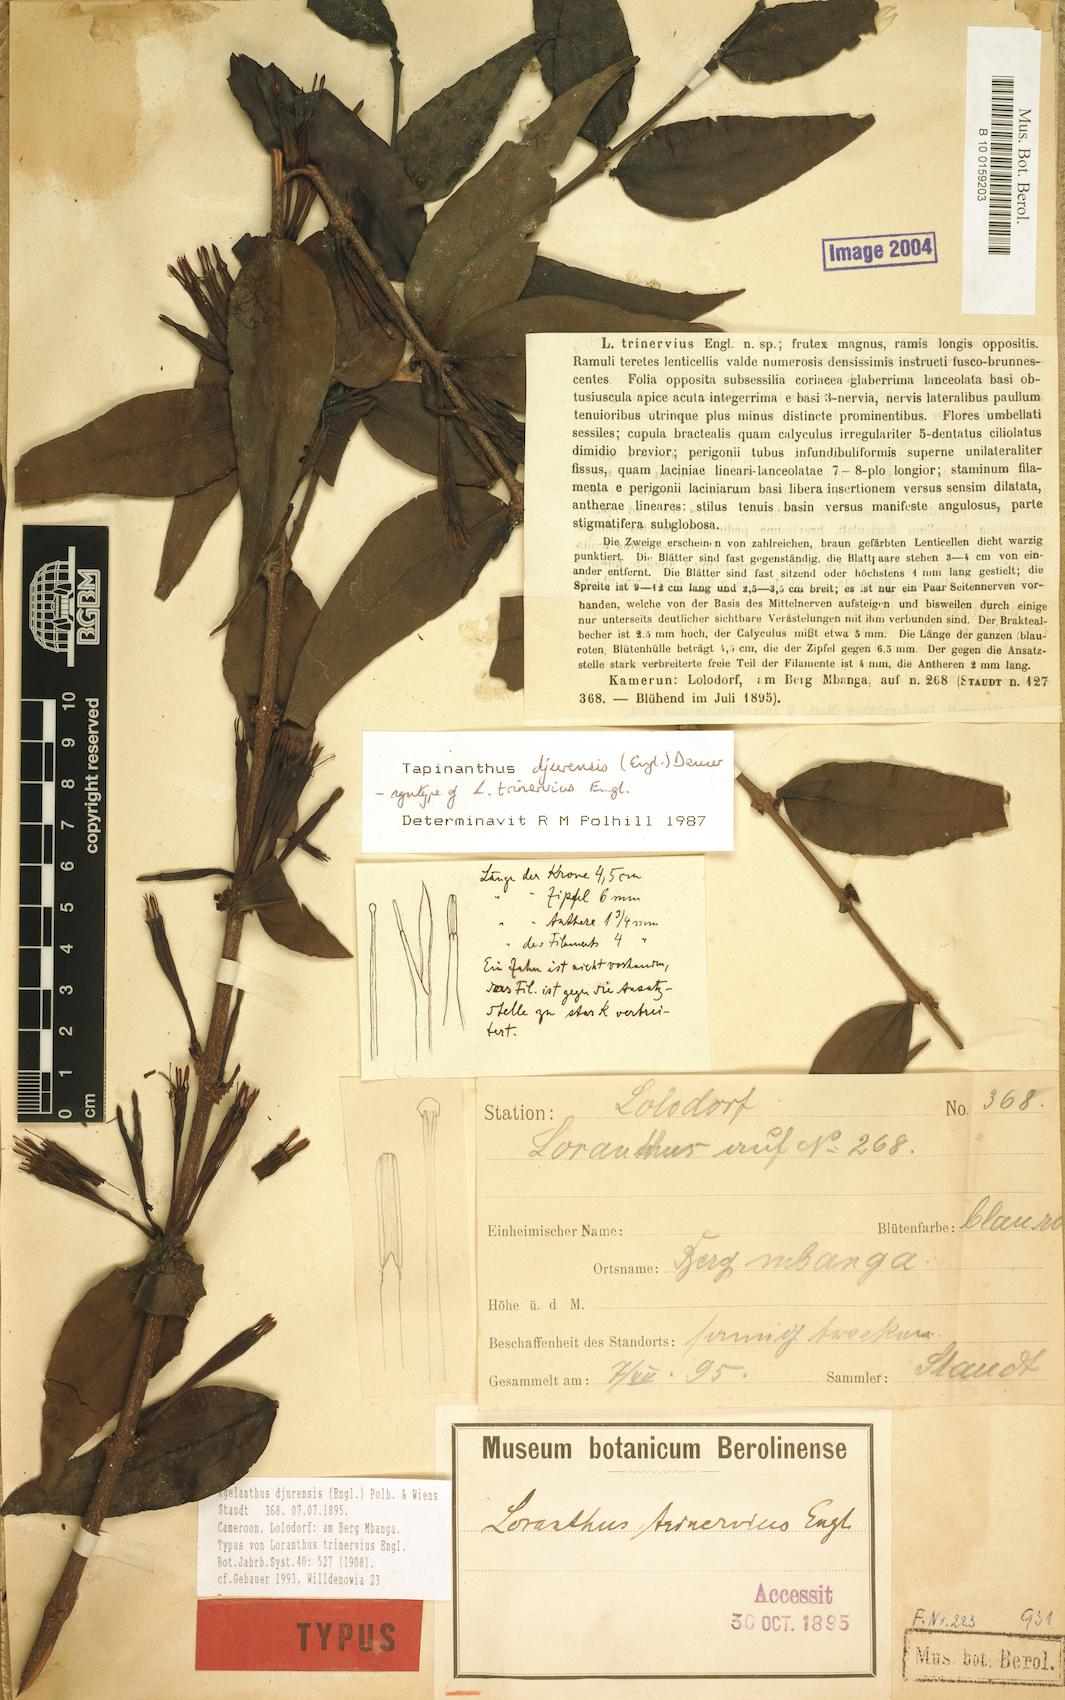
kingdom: Plantae
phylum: Tracheophyta
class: Magnoliopsida
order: Santalales
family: Loranthaceae
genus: Agelanthus
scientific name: Agelanthus djurensis
